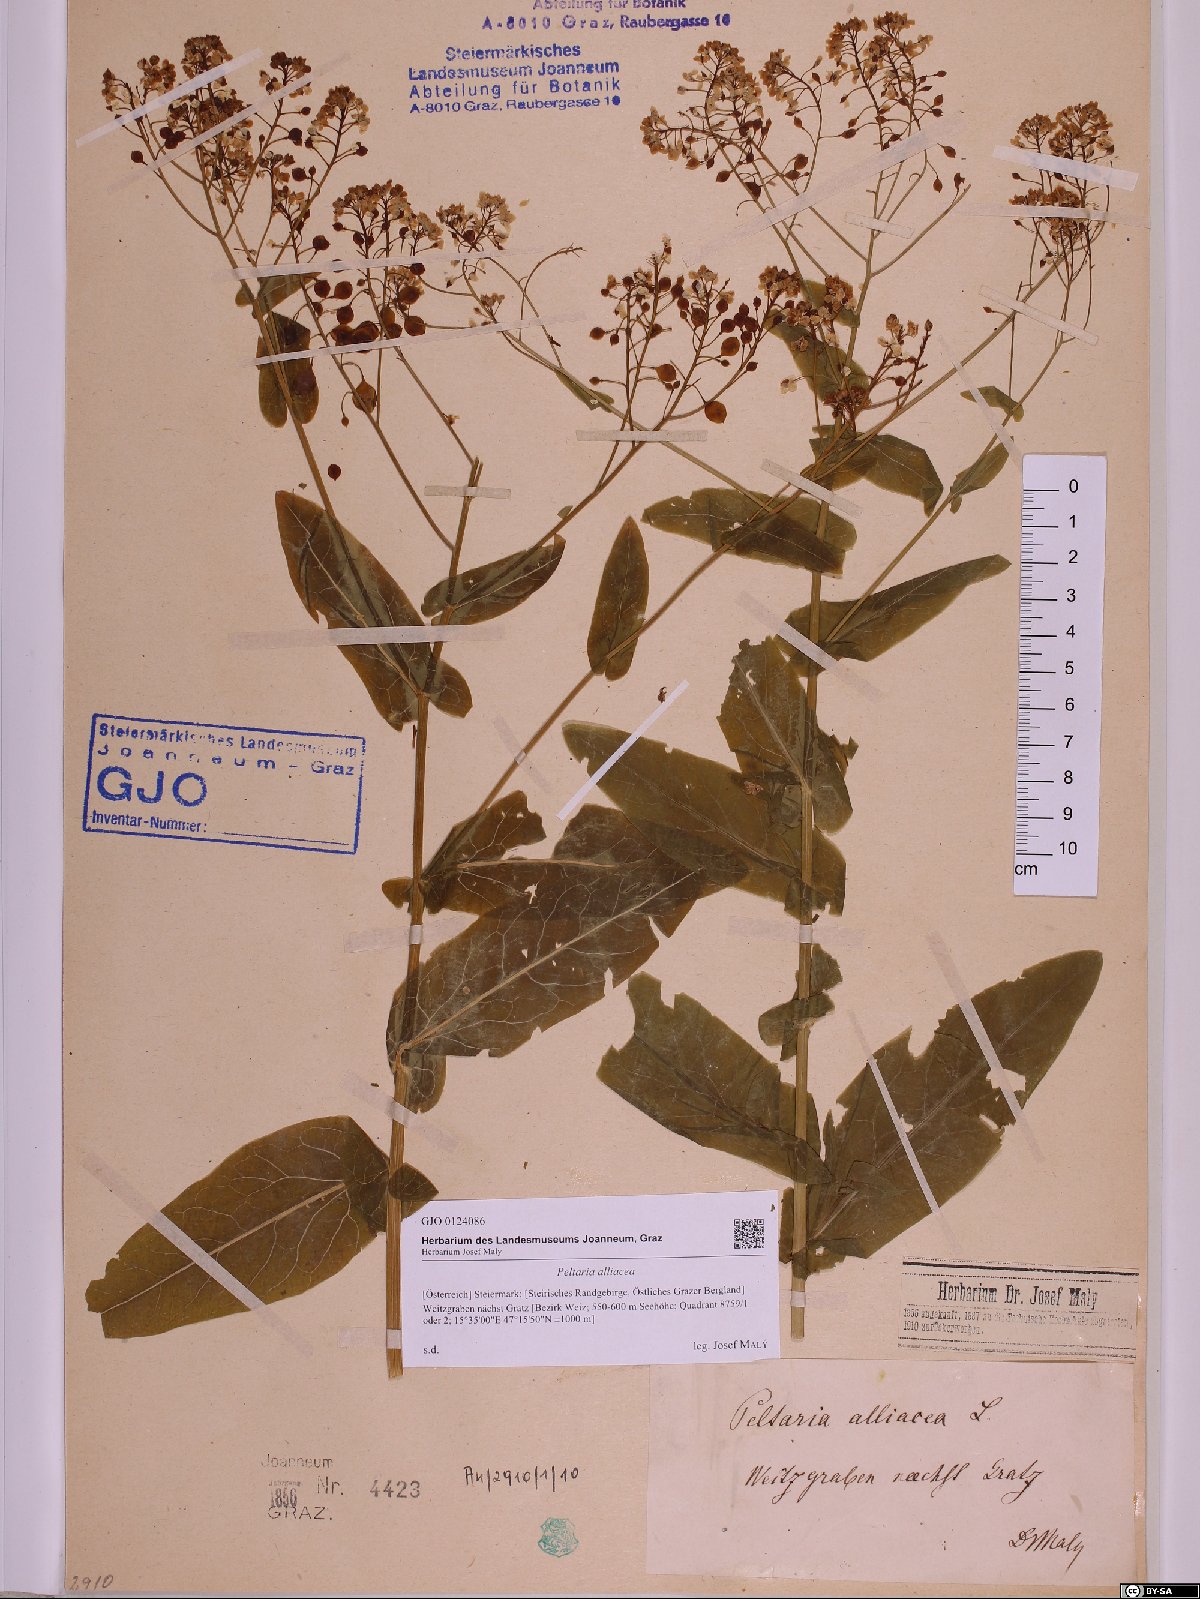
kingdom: Plantae
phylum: Tracheophyta
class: Magnoliopsida
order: Brassicales
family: Brassicaceae
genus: Peltaria
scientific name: Peltaria alliacea
